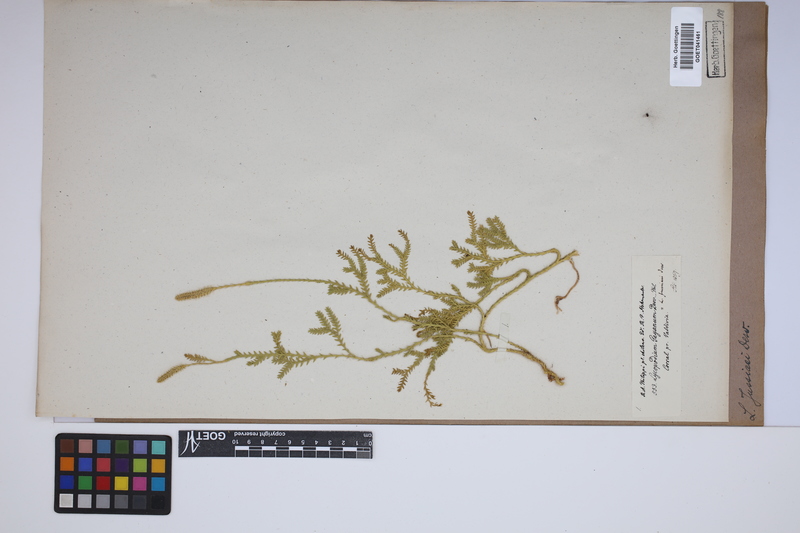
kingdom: Plantae
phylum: Tracheophyta
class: Lycopodiopsida
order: Lycopodiales
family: Lycopodiaceae
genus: Diphasium
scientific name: Diphasium jussiaei
